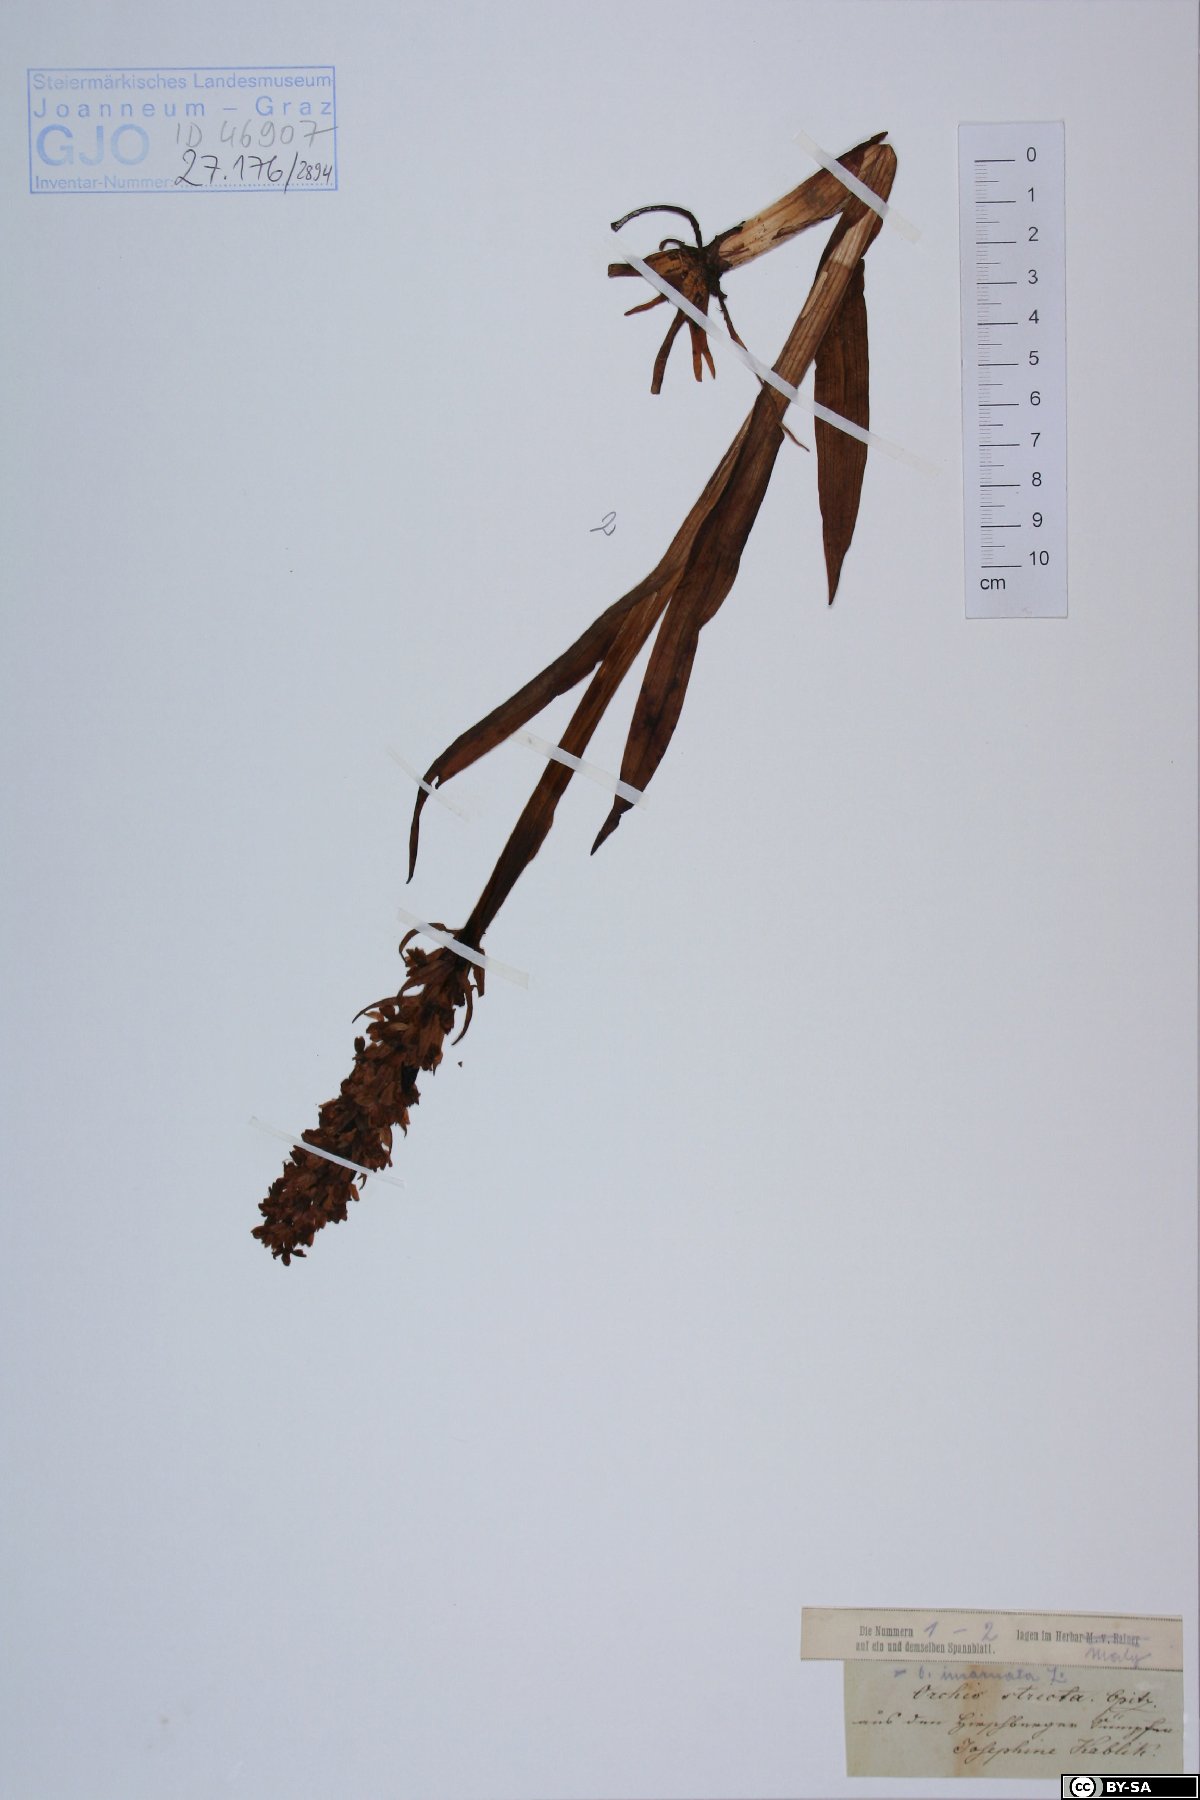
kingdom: Plantae
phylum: Tracheophyta
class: Liliopsida
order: Asparagales
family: Orchidaceae
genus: Dactylorhiza
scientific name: Dactylorhiza incarnata
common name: Early marsh-orchid
